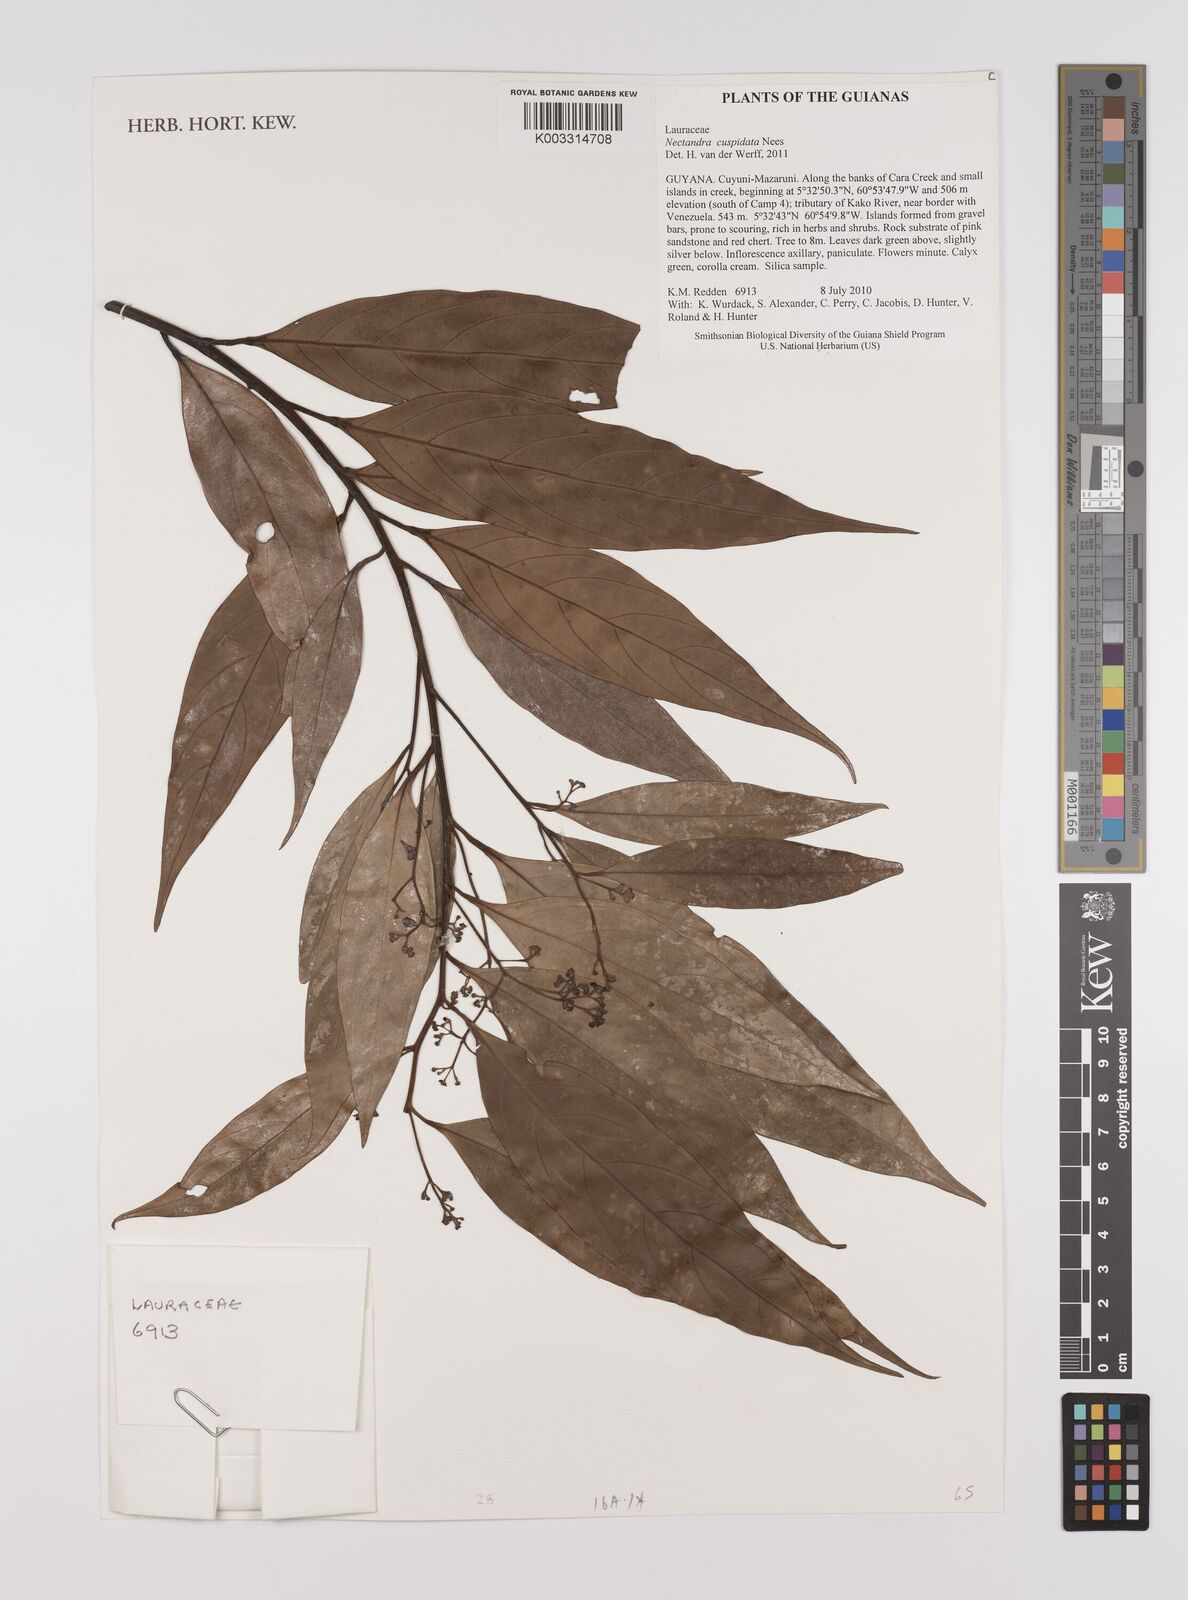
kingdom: Plantae
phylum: Tracheophyta
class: Magnoliopsida
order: Laurales
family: Lauraceae
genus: Nectandra
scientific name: Nectandra cuspidata
